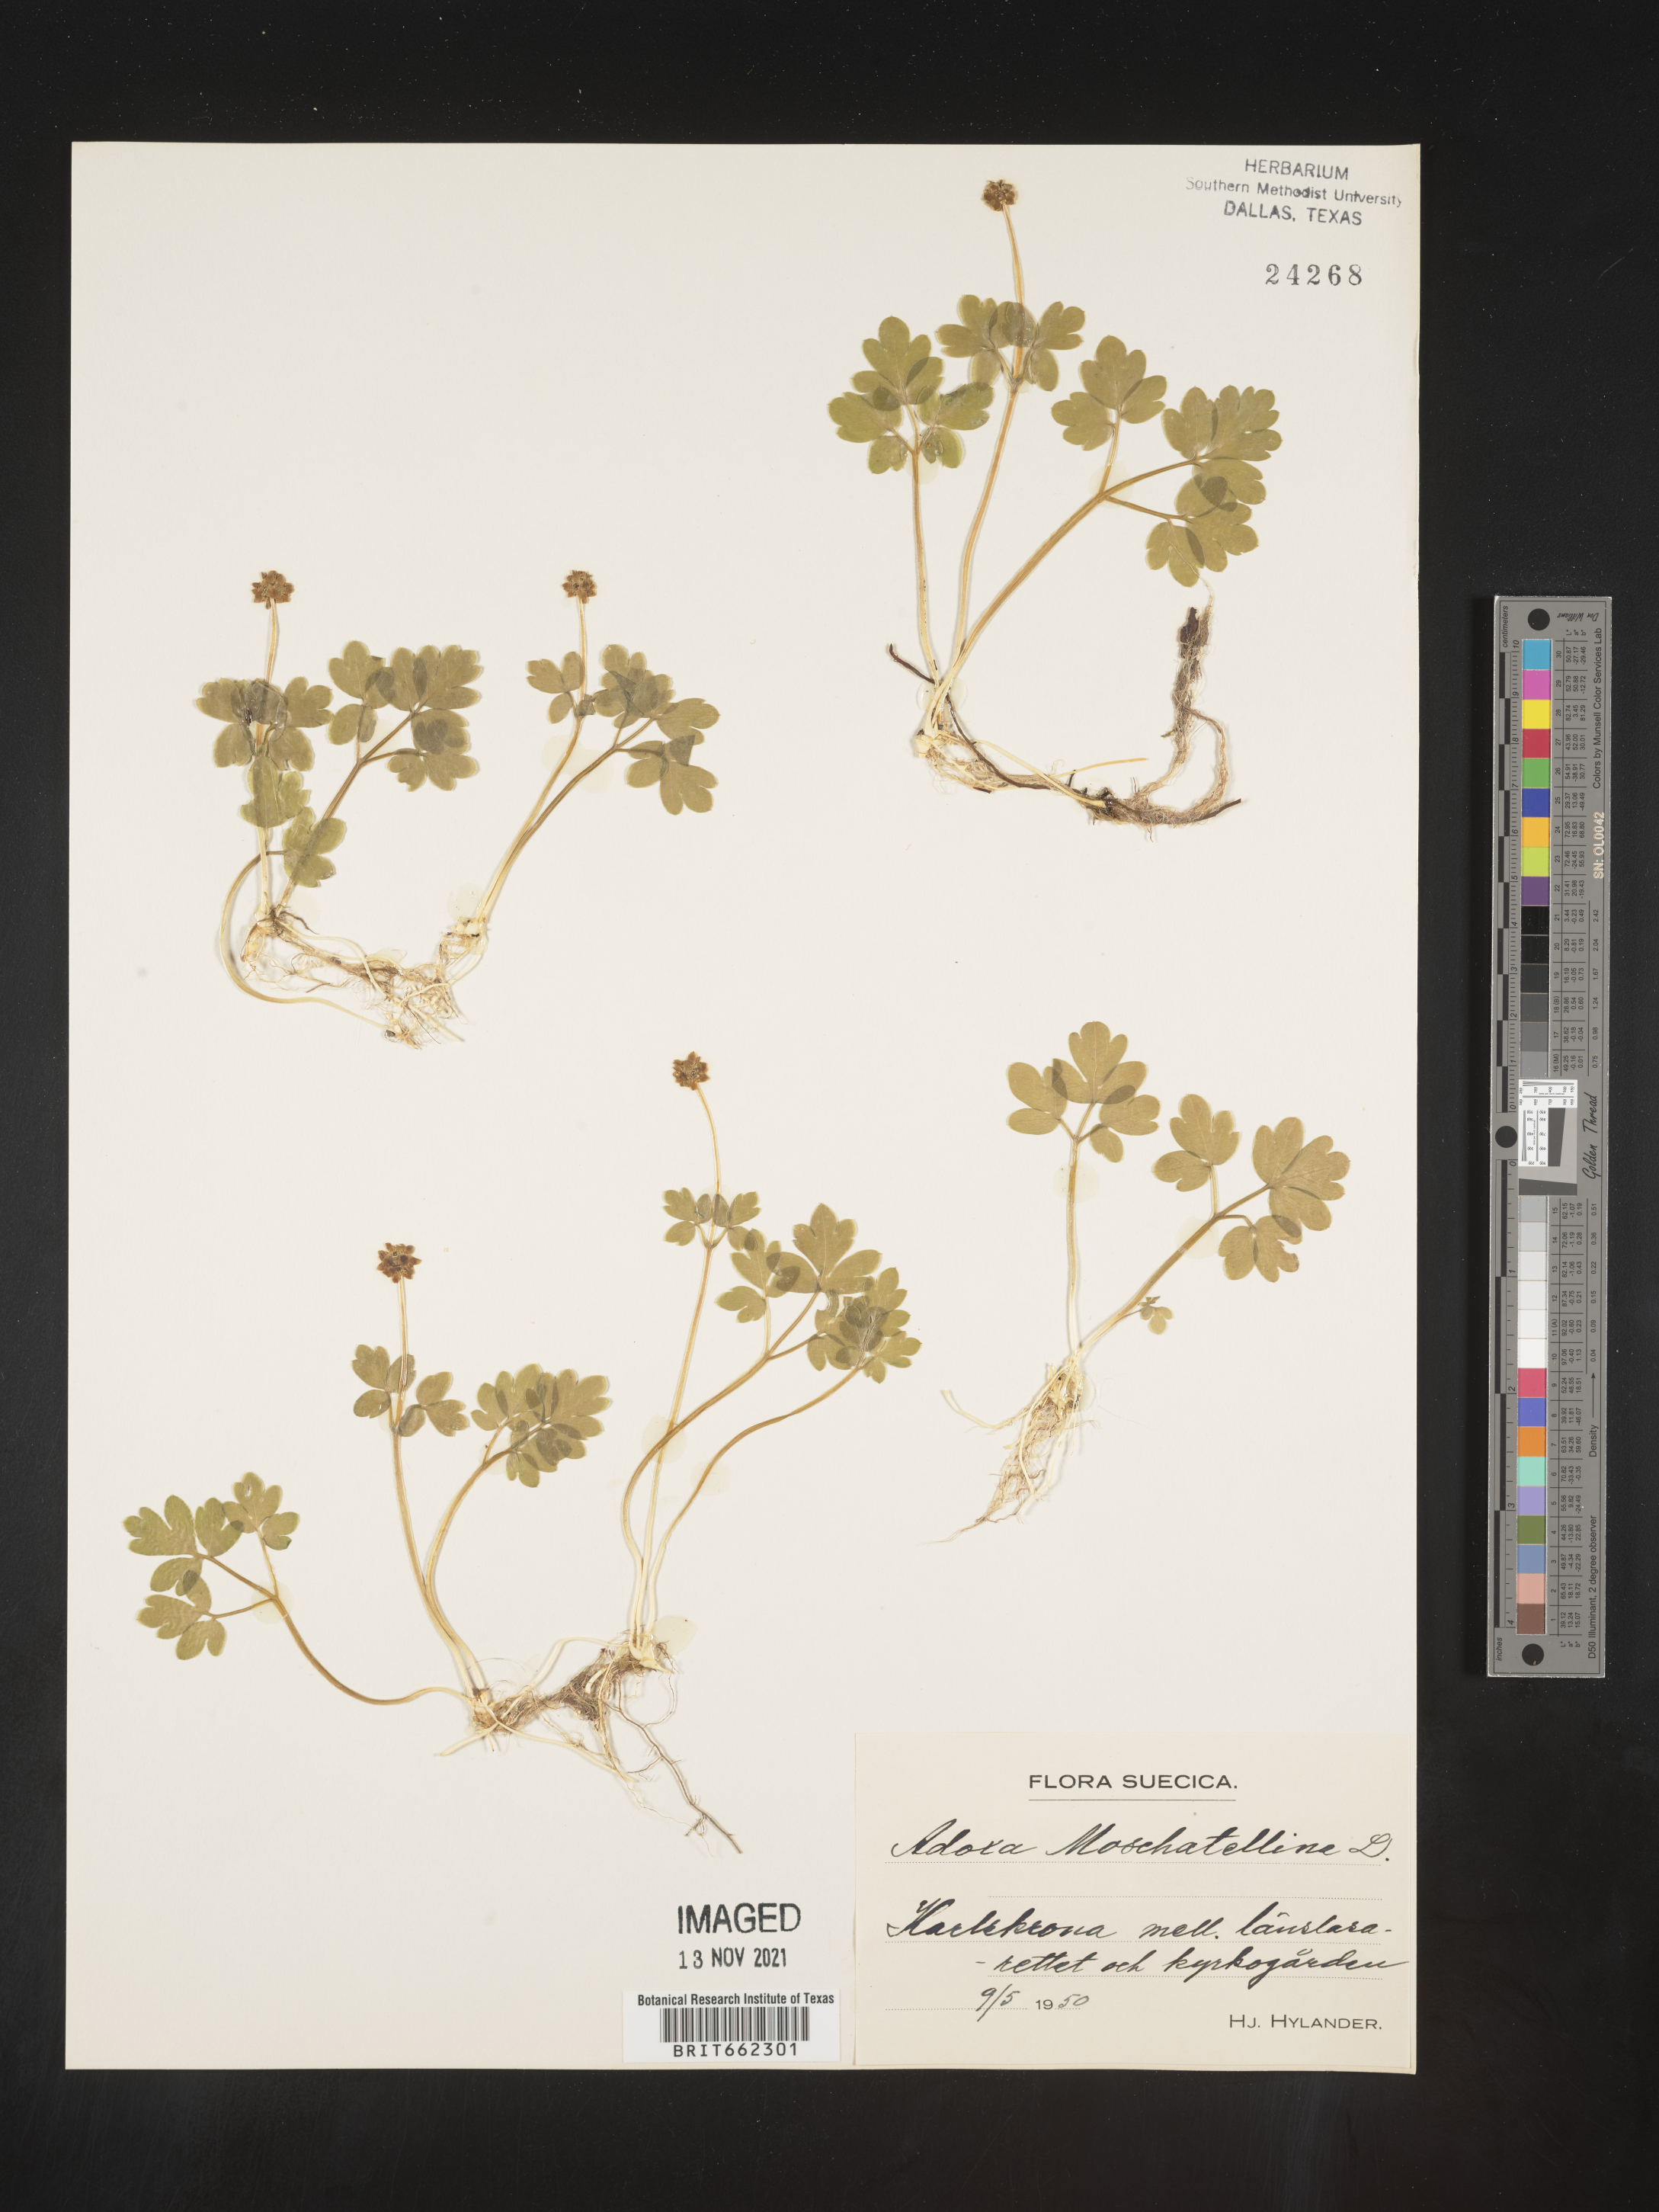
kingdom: Plantae
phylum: Tracheophyta
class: Magnoliopsida
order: Dipsacales
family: Viburnaceae
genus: Adoxa
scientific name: Adoxa
